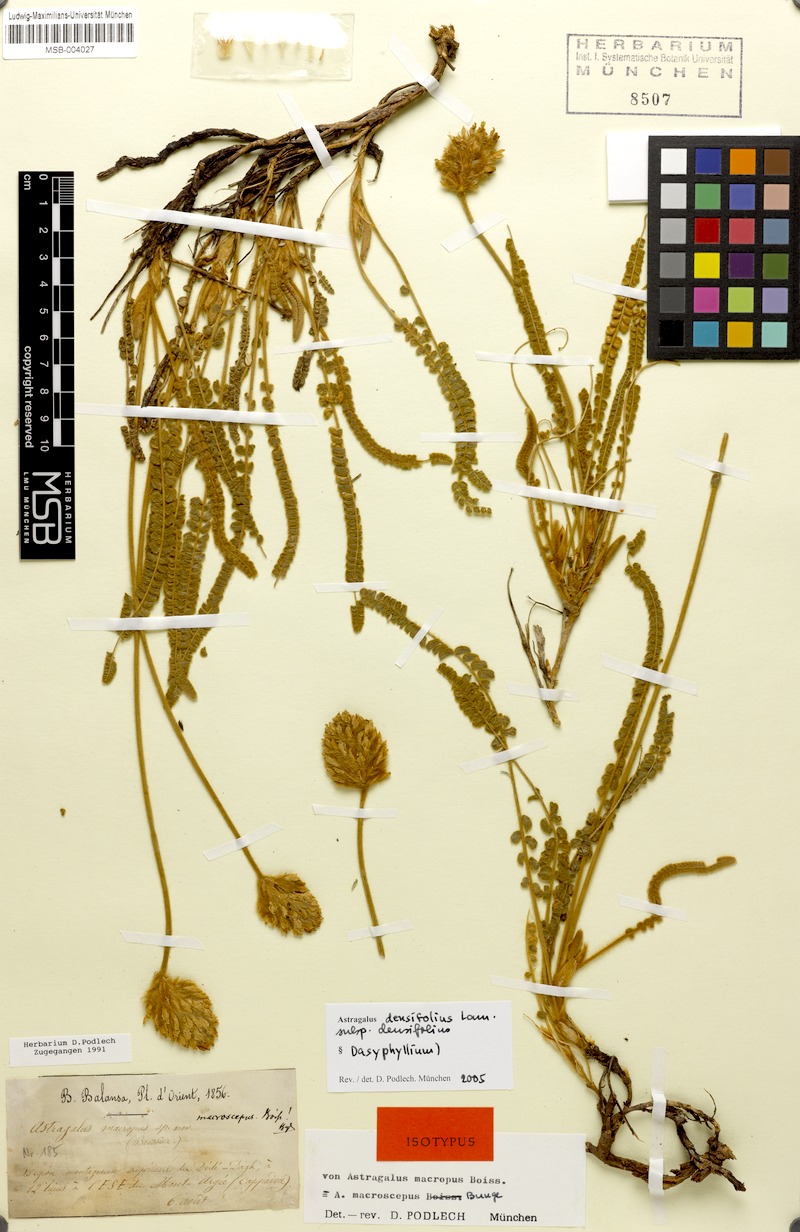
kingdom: Plantae
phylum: Tracheophyta
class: Magnoliopsida
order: Fabales
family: Fabaceae
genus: Astragalus
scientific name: Astragalus densifolius
